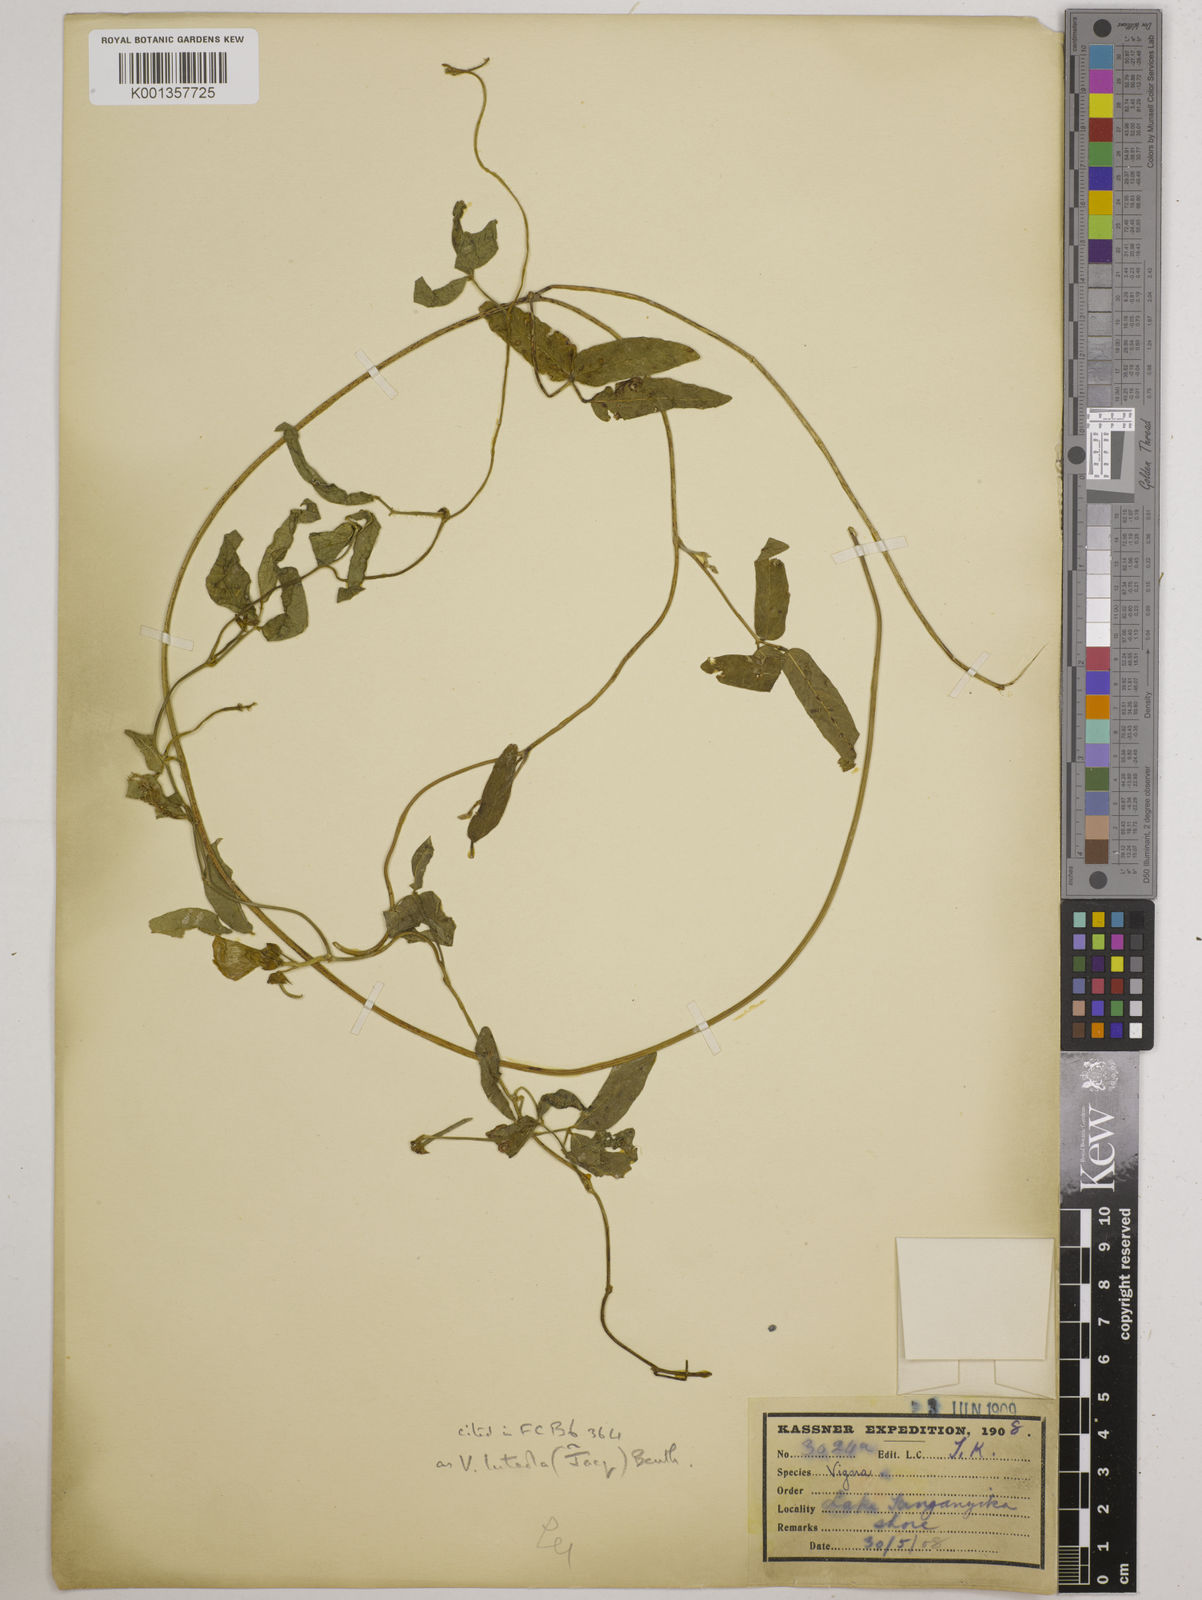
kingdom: Plantae
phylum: Tracheophyta
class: Magnoliopsida
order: Fabales
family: Fabaceae
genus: Vigna
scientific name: Vigna luteola
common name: Hairypod cowpea
